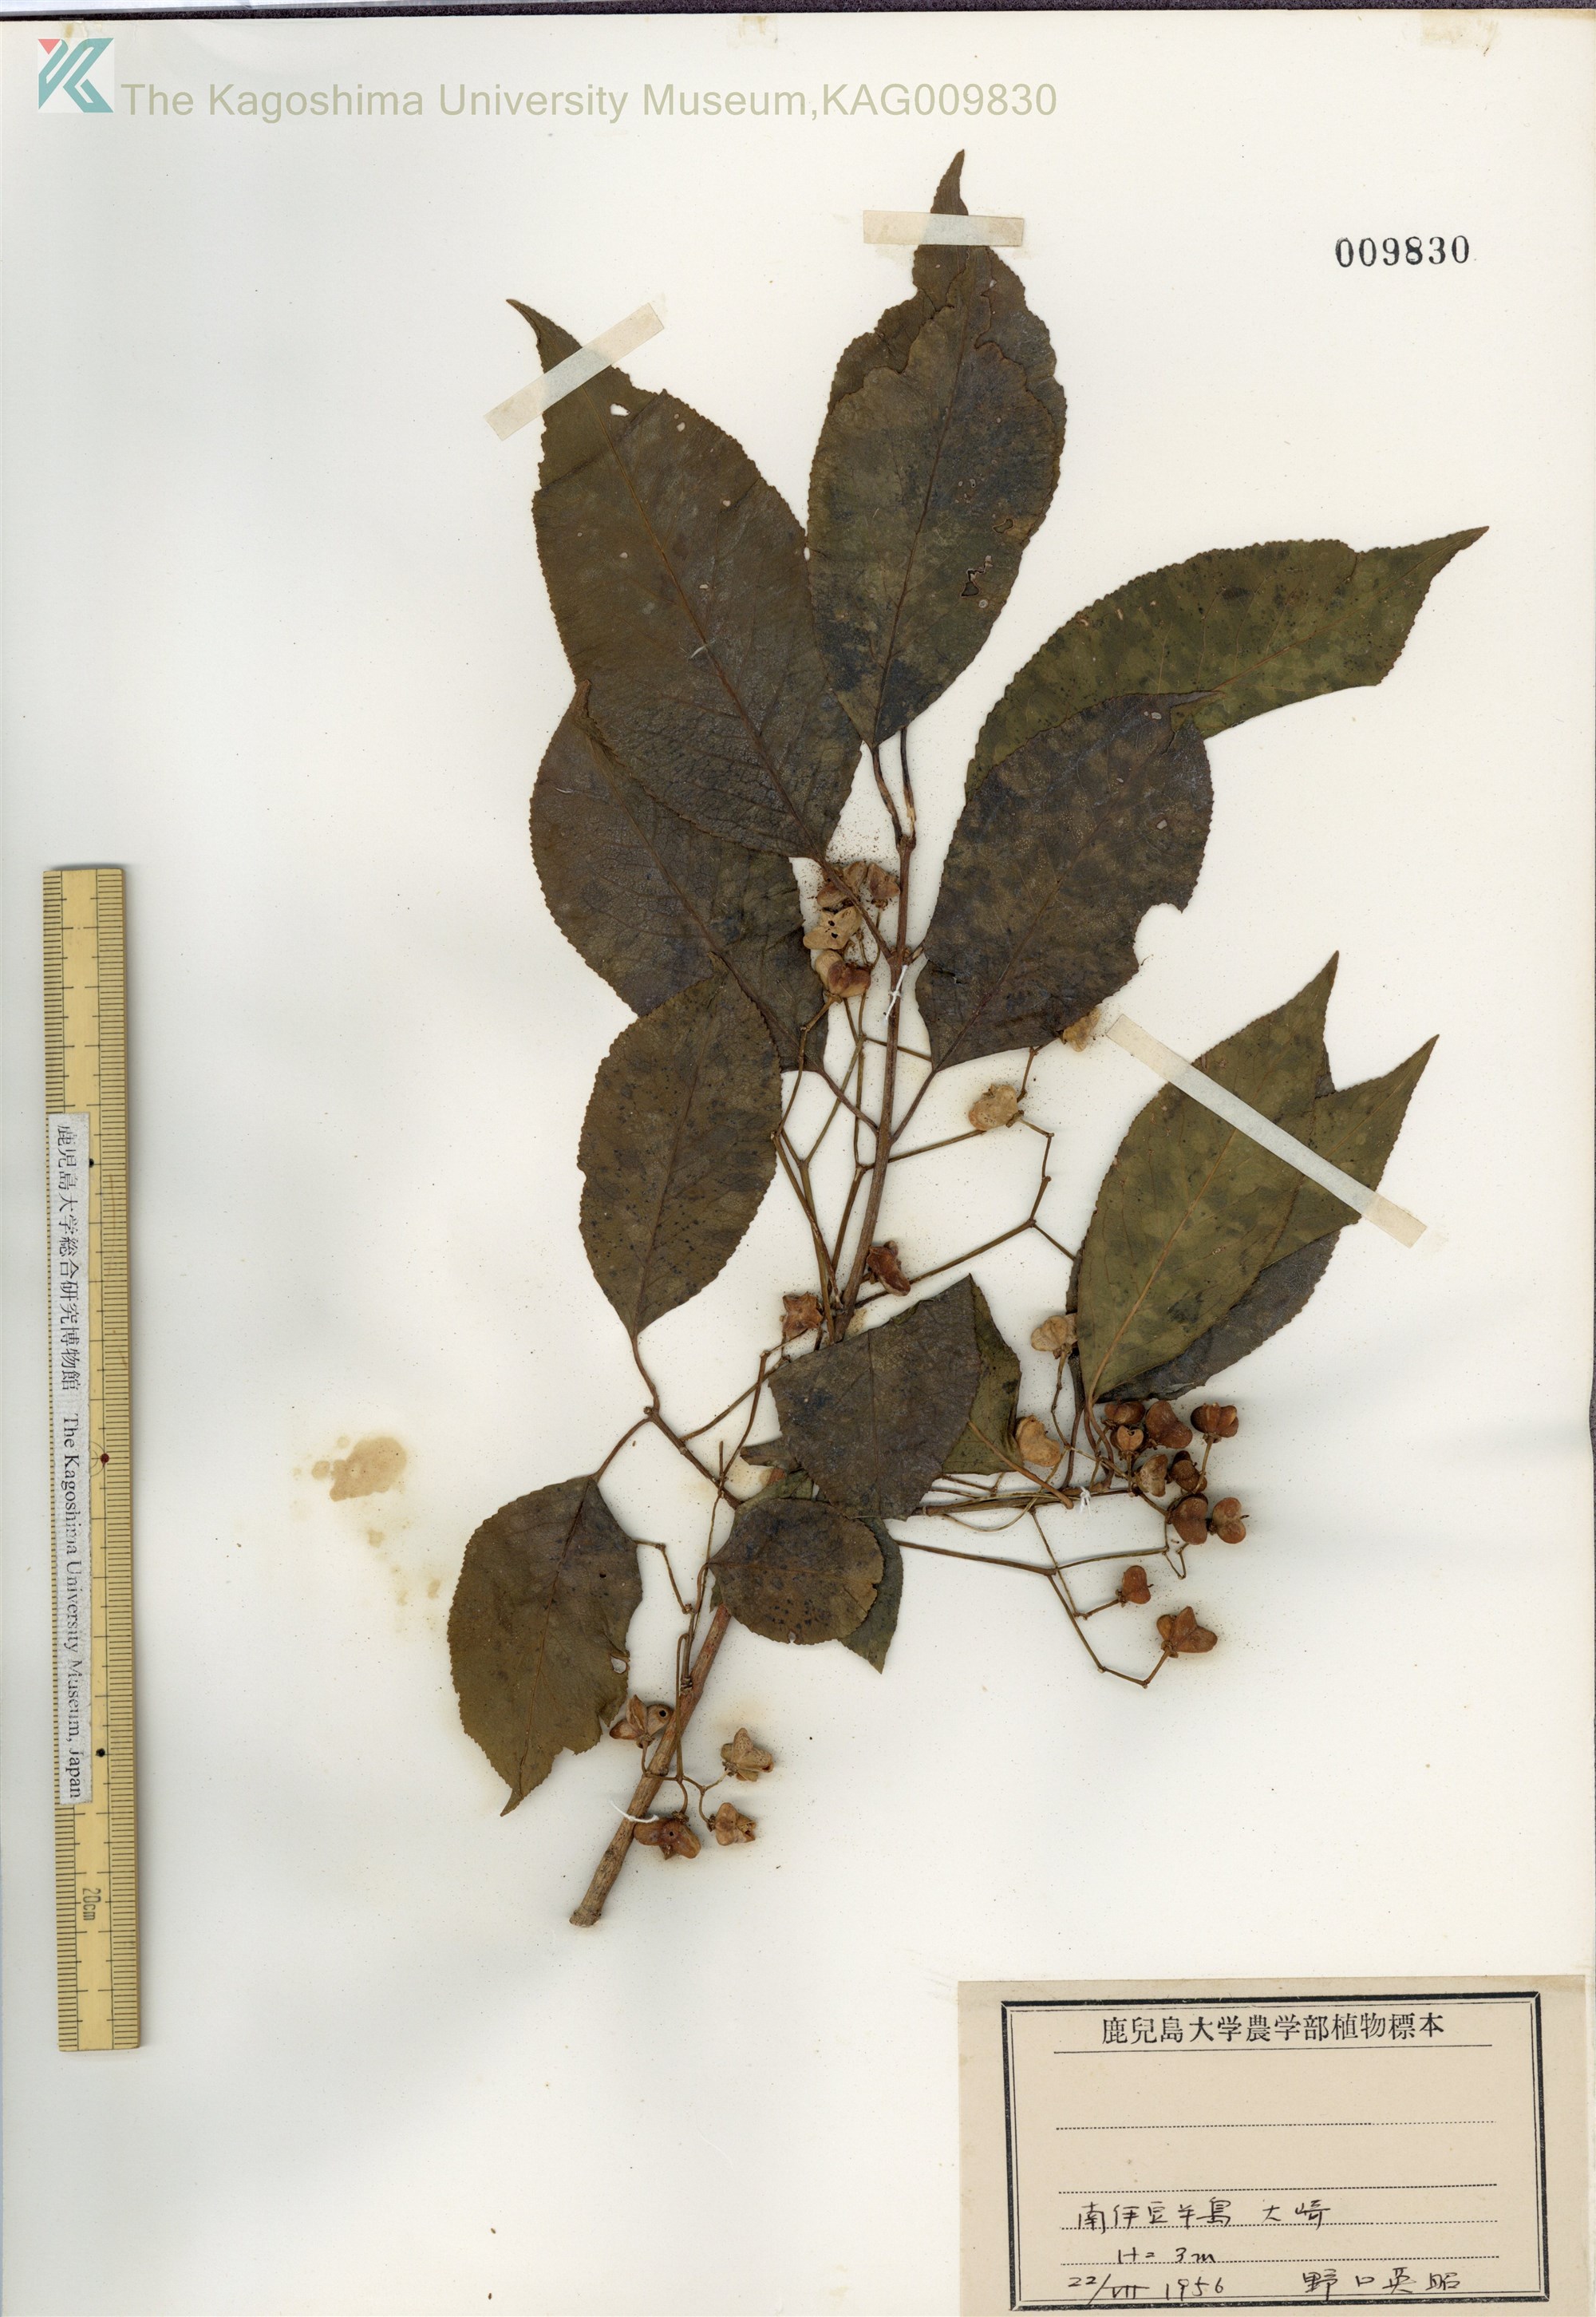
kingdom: Plantae
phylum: Tracheophyta
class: Magnoliopsida
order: Celastrales
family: Celastraceae
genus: Euonymus
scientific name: Euonymus hamiltonianus
